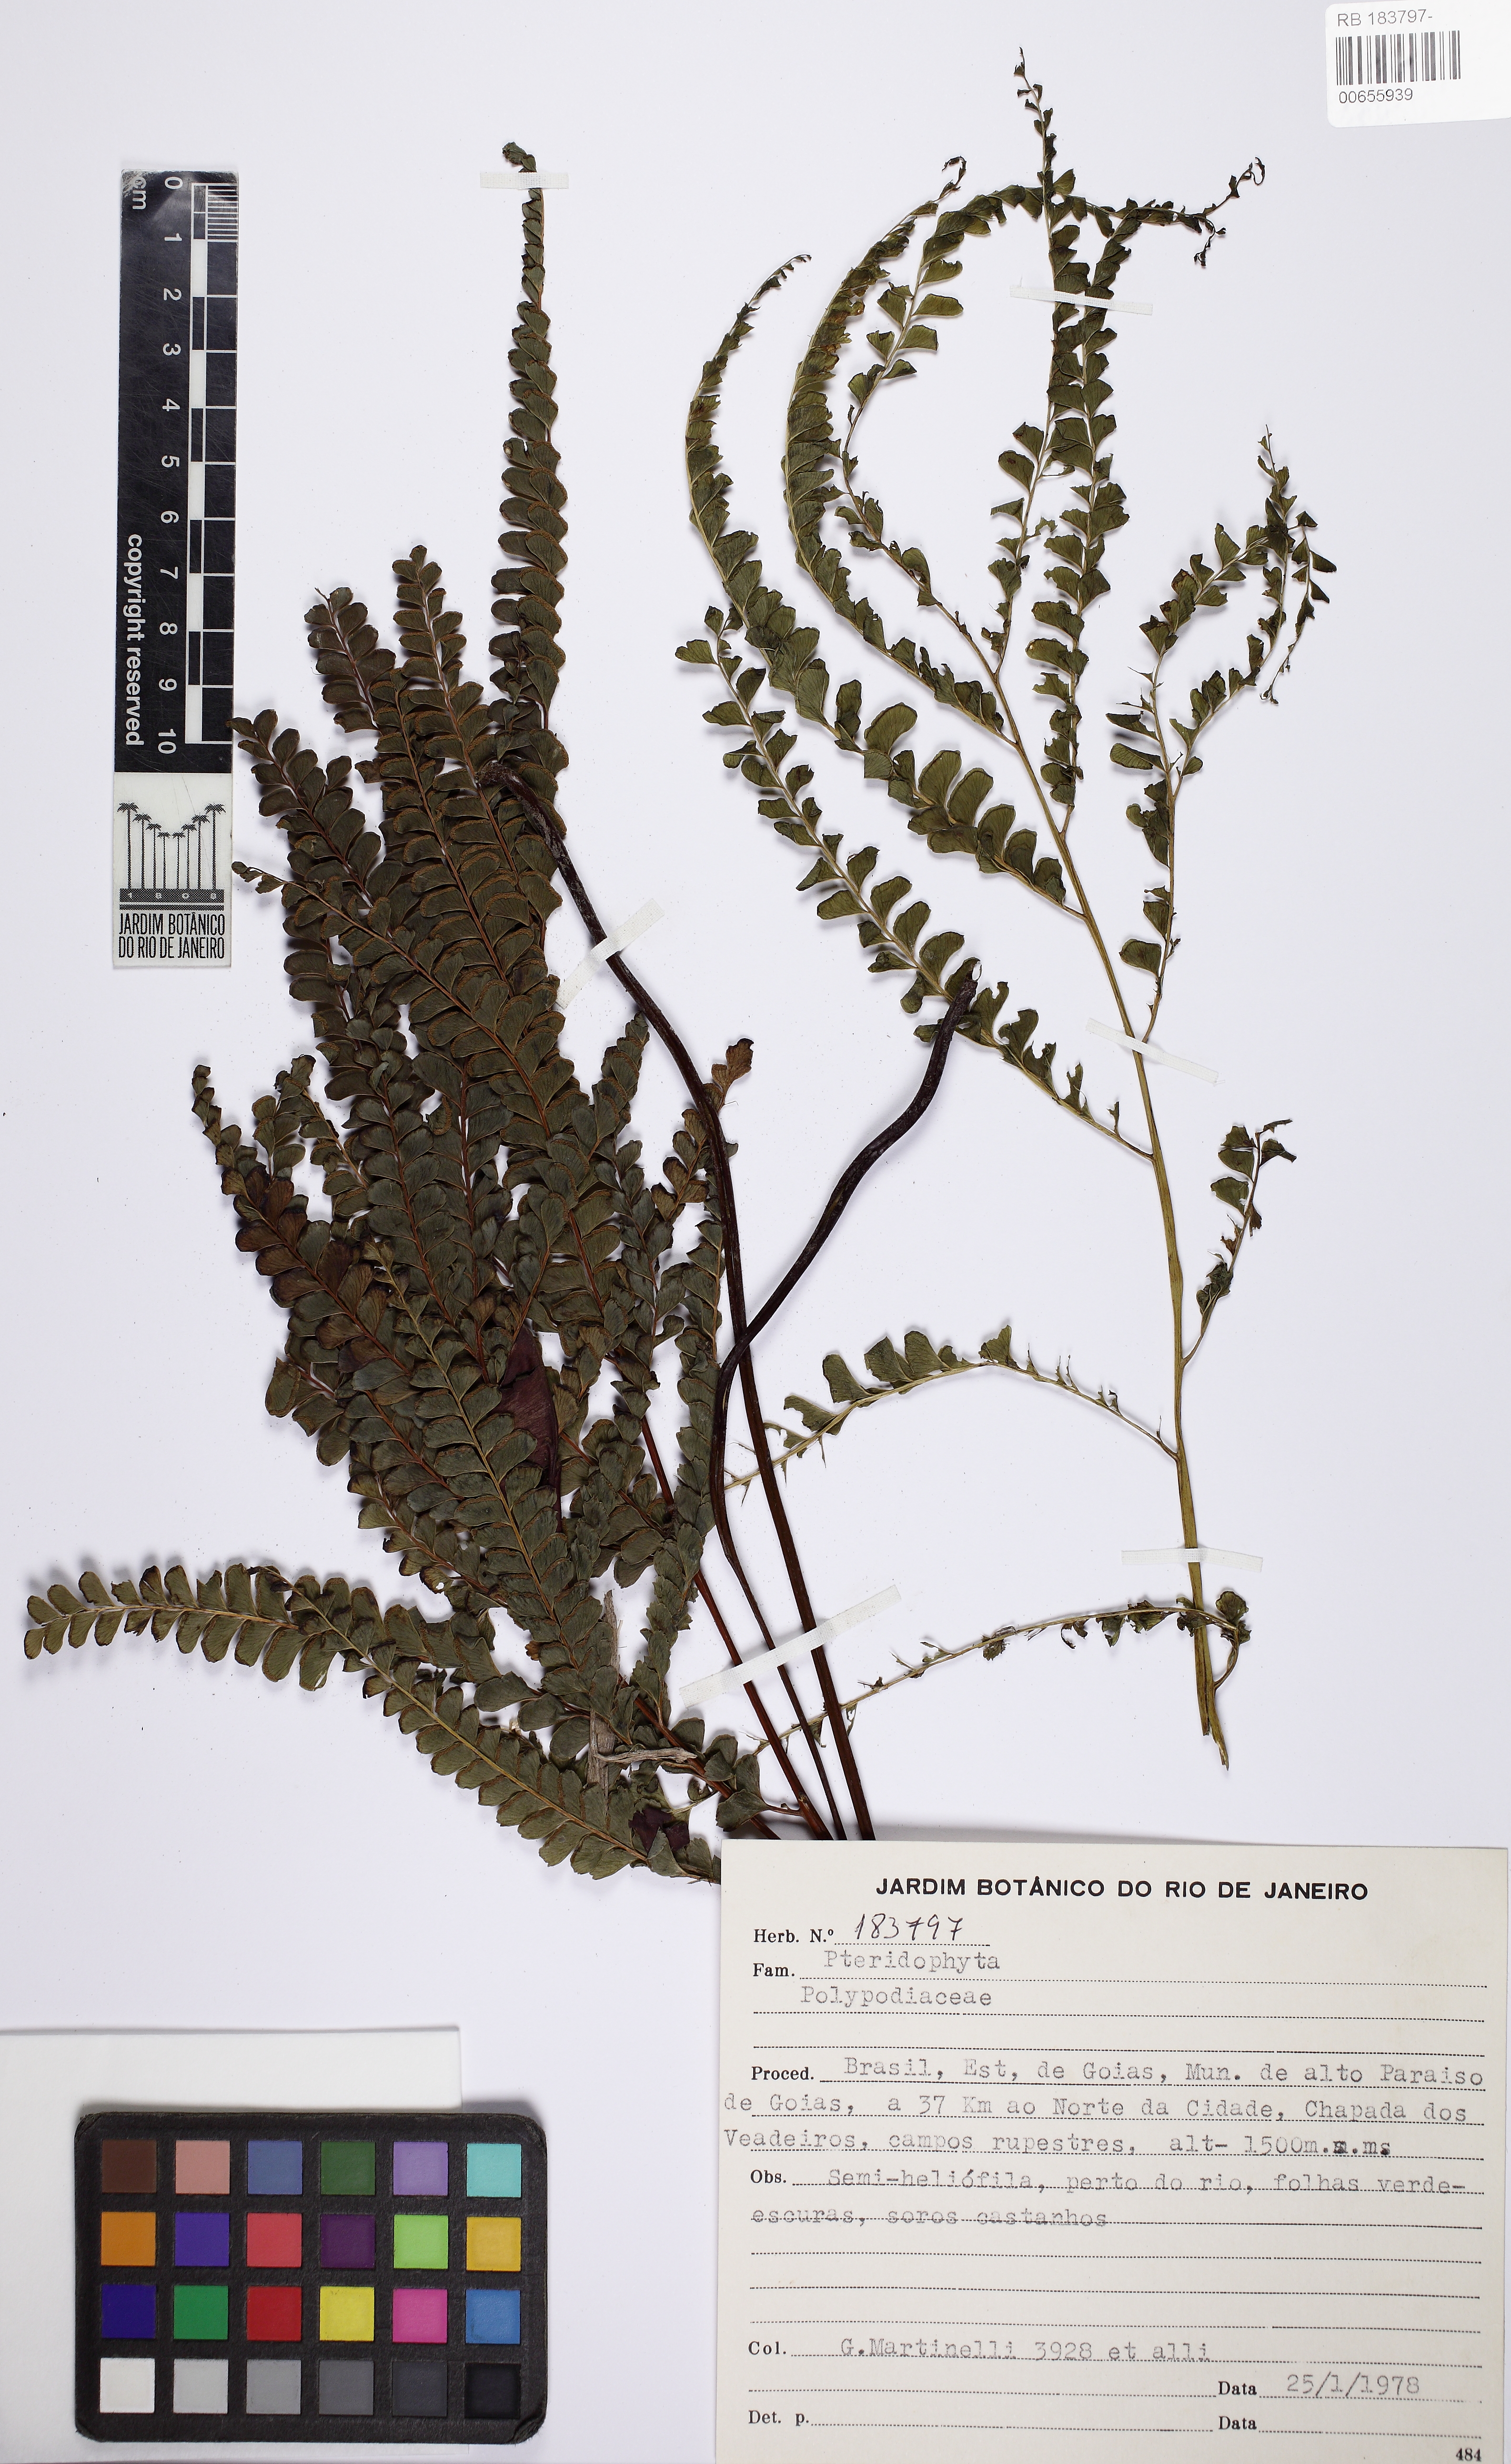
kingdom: Plantae
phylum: Tracheophyta
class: Polypodiopsida
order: Polypodiales
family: Lindsaeaceae
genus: Lindsaea
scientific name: Lindsaea
